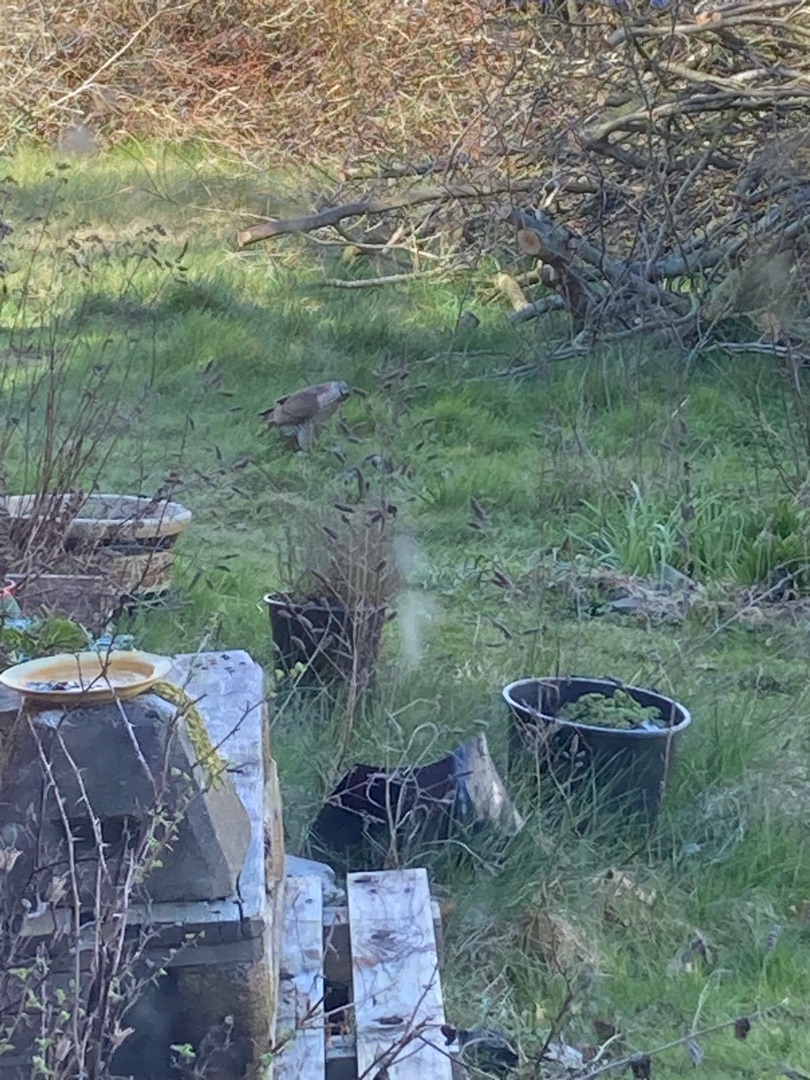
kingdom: Animalia
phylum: Chordata
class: Aves
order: Accipitriformes
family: Accipitridae
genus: Accipiter
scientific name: Accipiter nisus
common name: Spurvehøg
